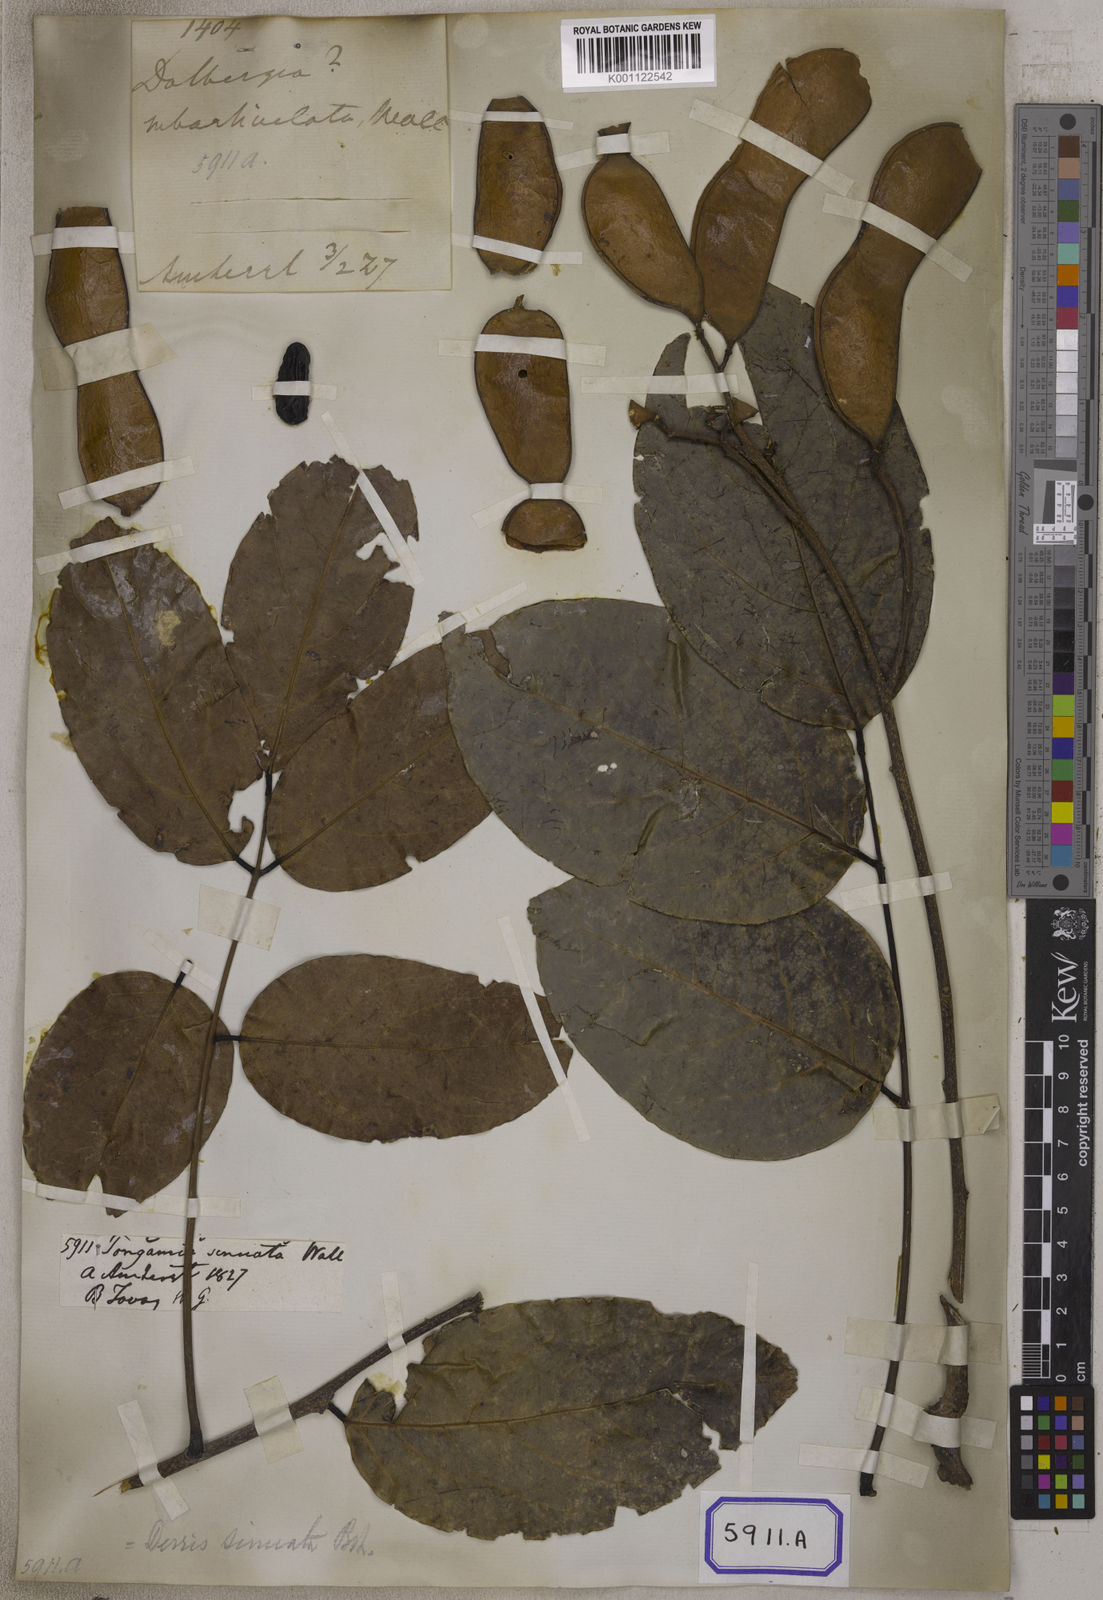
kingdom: Plantae
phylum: Tracheophyta
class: Magnoliopsida
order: Fabales
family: Fabaceae
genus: Aganope
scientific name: Aganope heptaphylla
